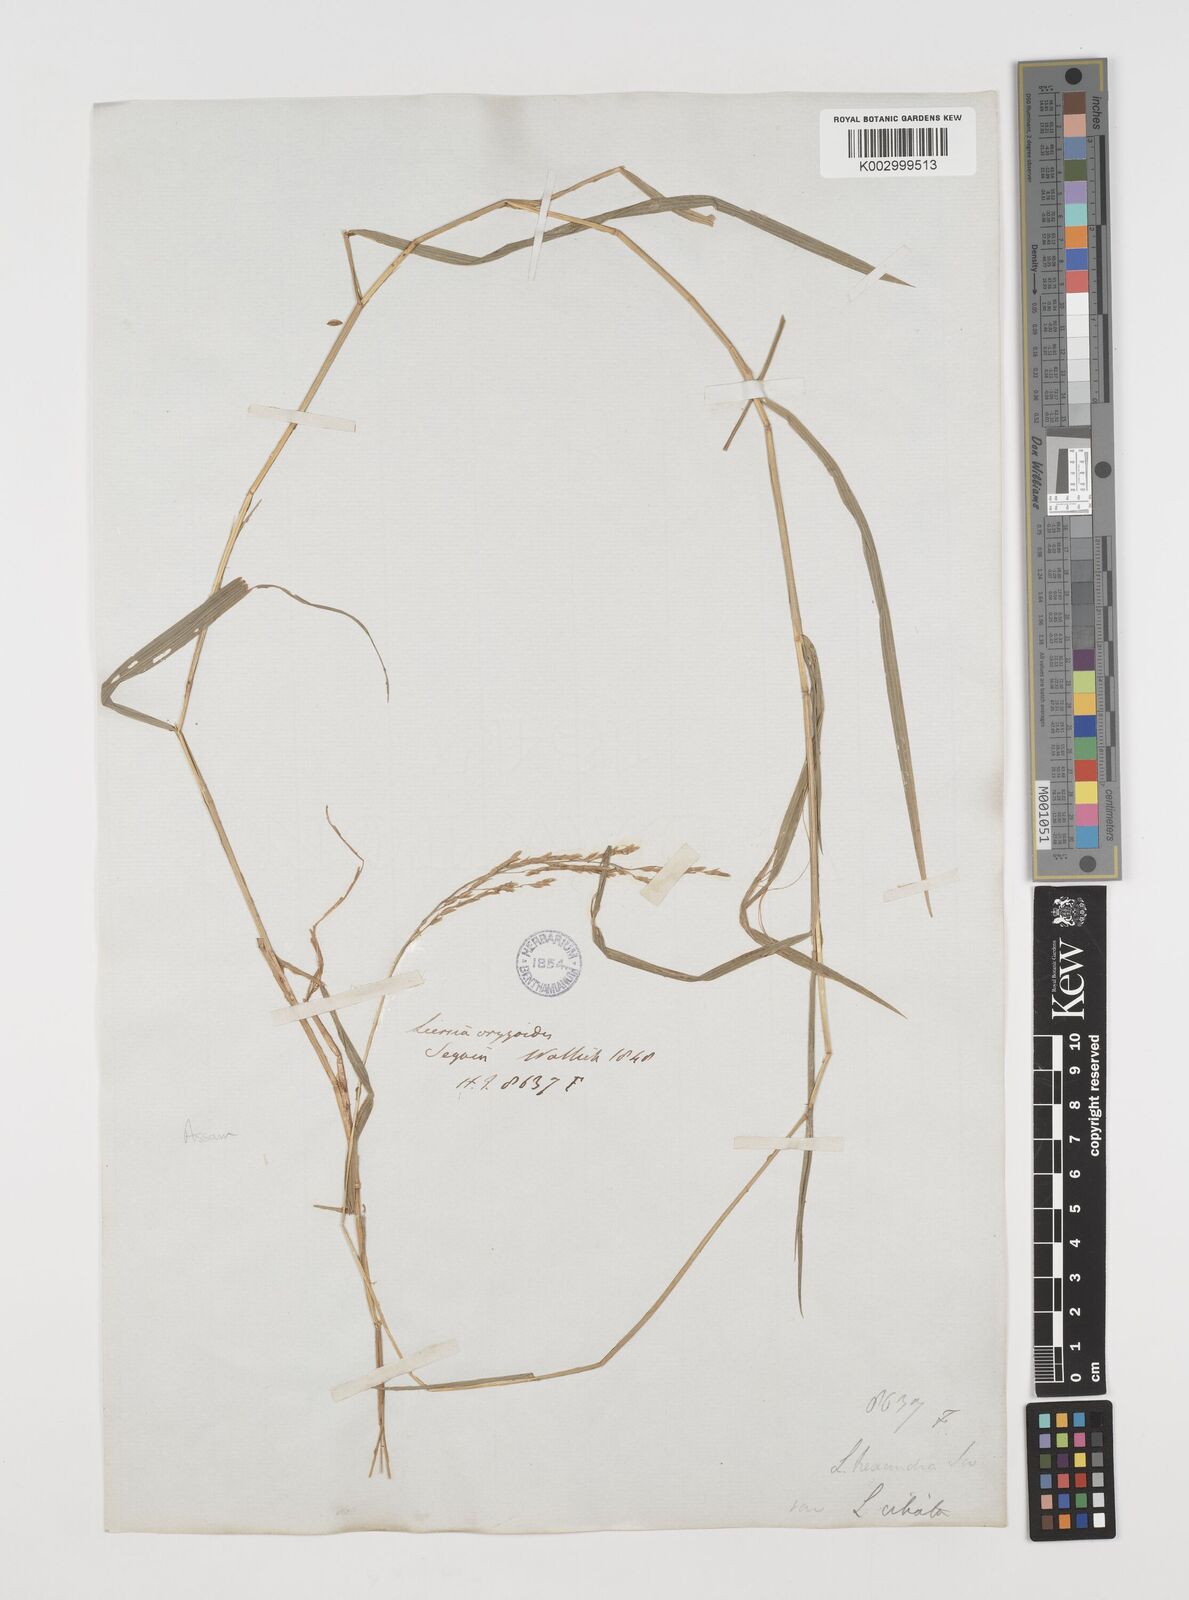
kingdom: Plantae
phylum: Tracheophyta
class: Liliopsida
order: Poales
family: Poaceae
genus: Leersia
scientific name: Leersia hexandra
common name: Southern cut grass
